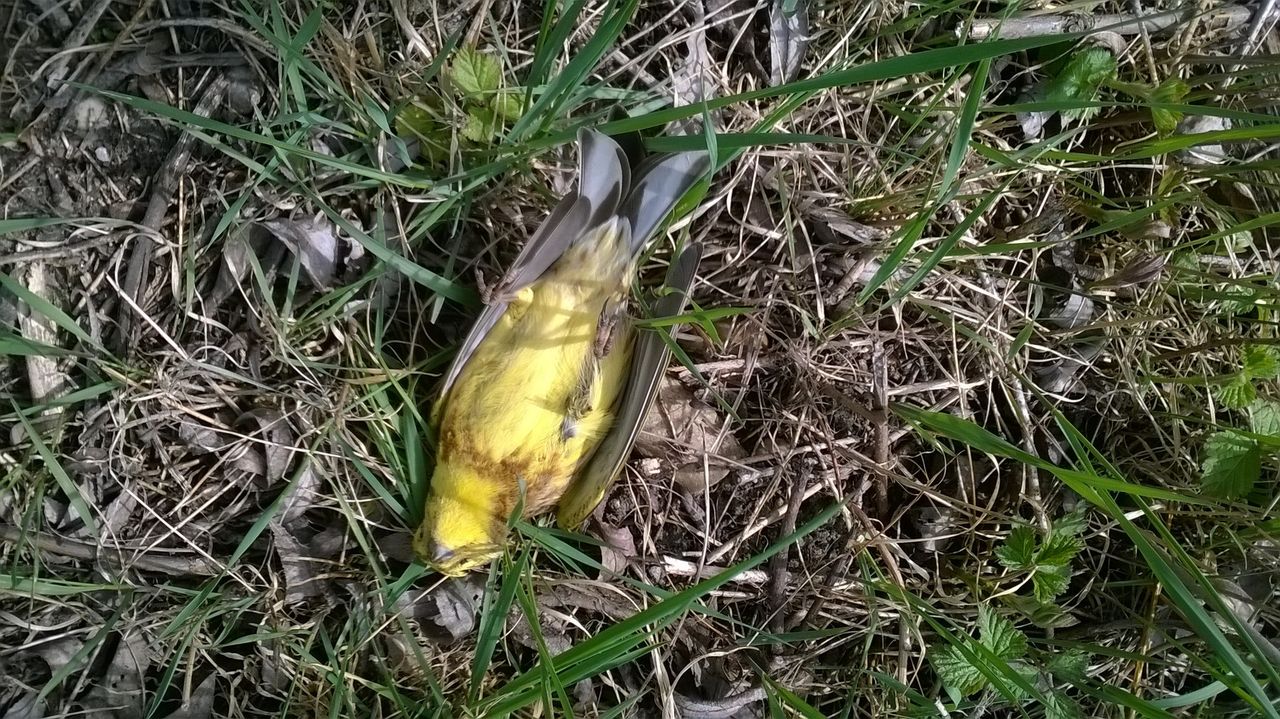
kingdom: Animalia
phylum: Chordata
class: Aves
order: Passeriformes
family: Emberizidae
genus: Emberiza
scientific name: Emberiza citrinella
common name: Yellowhammer
